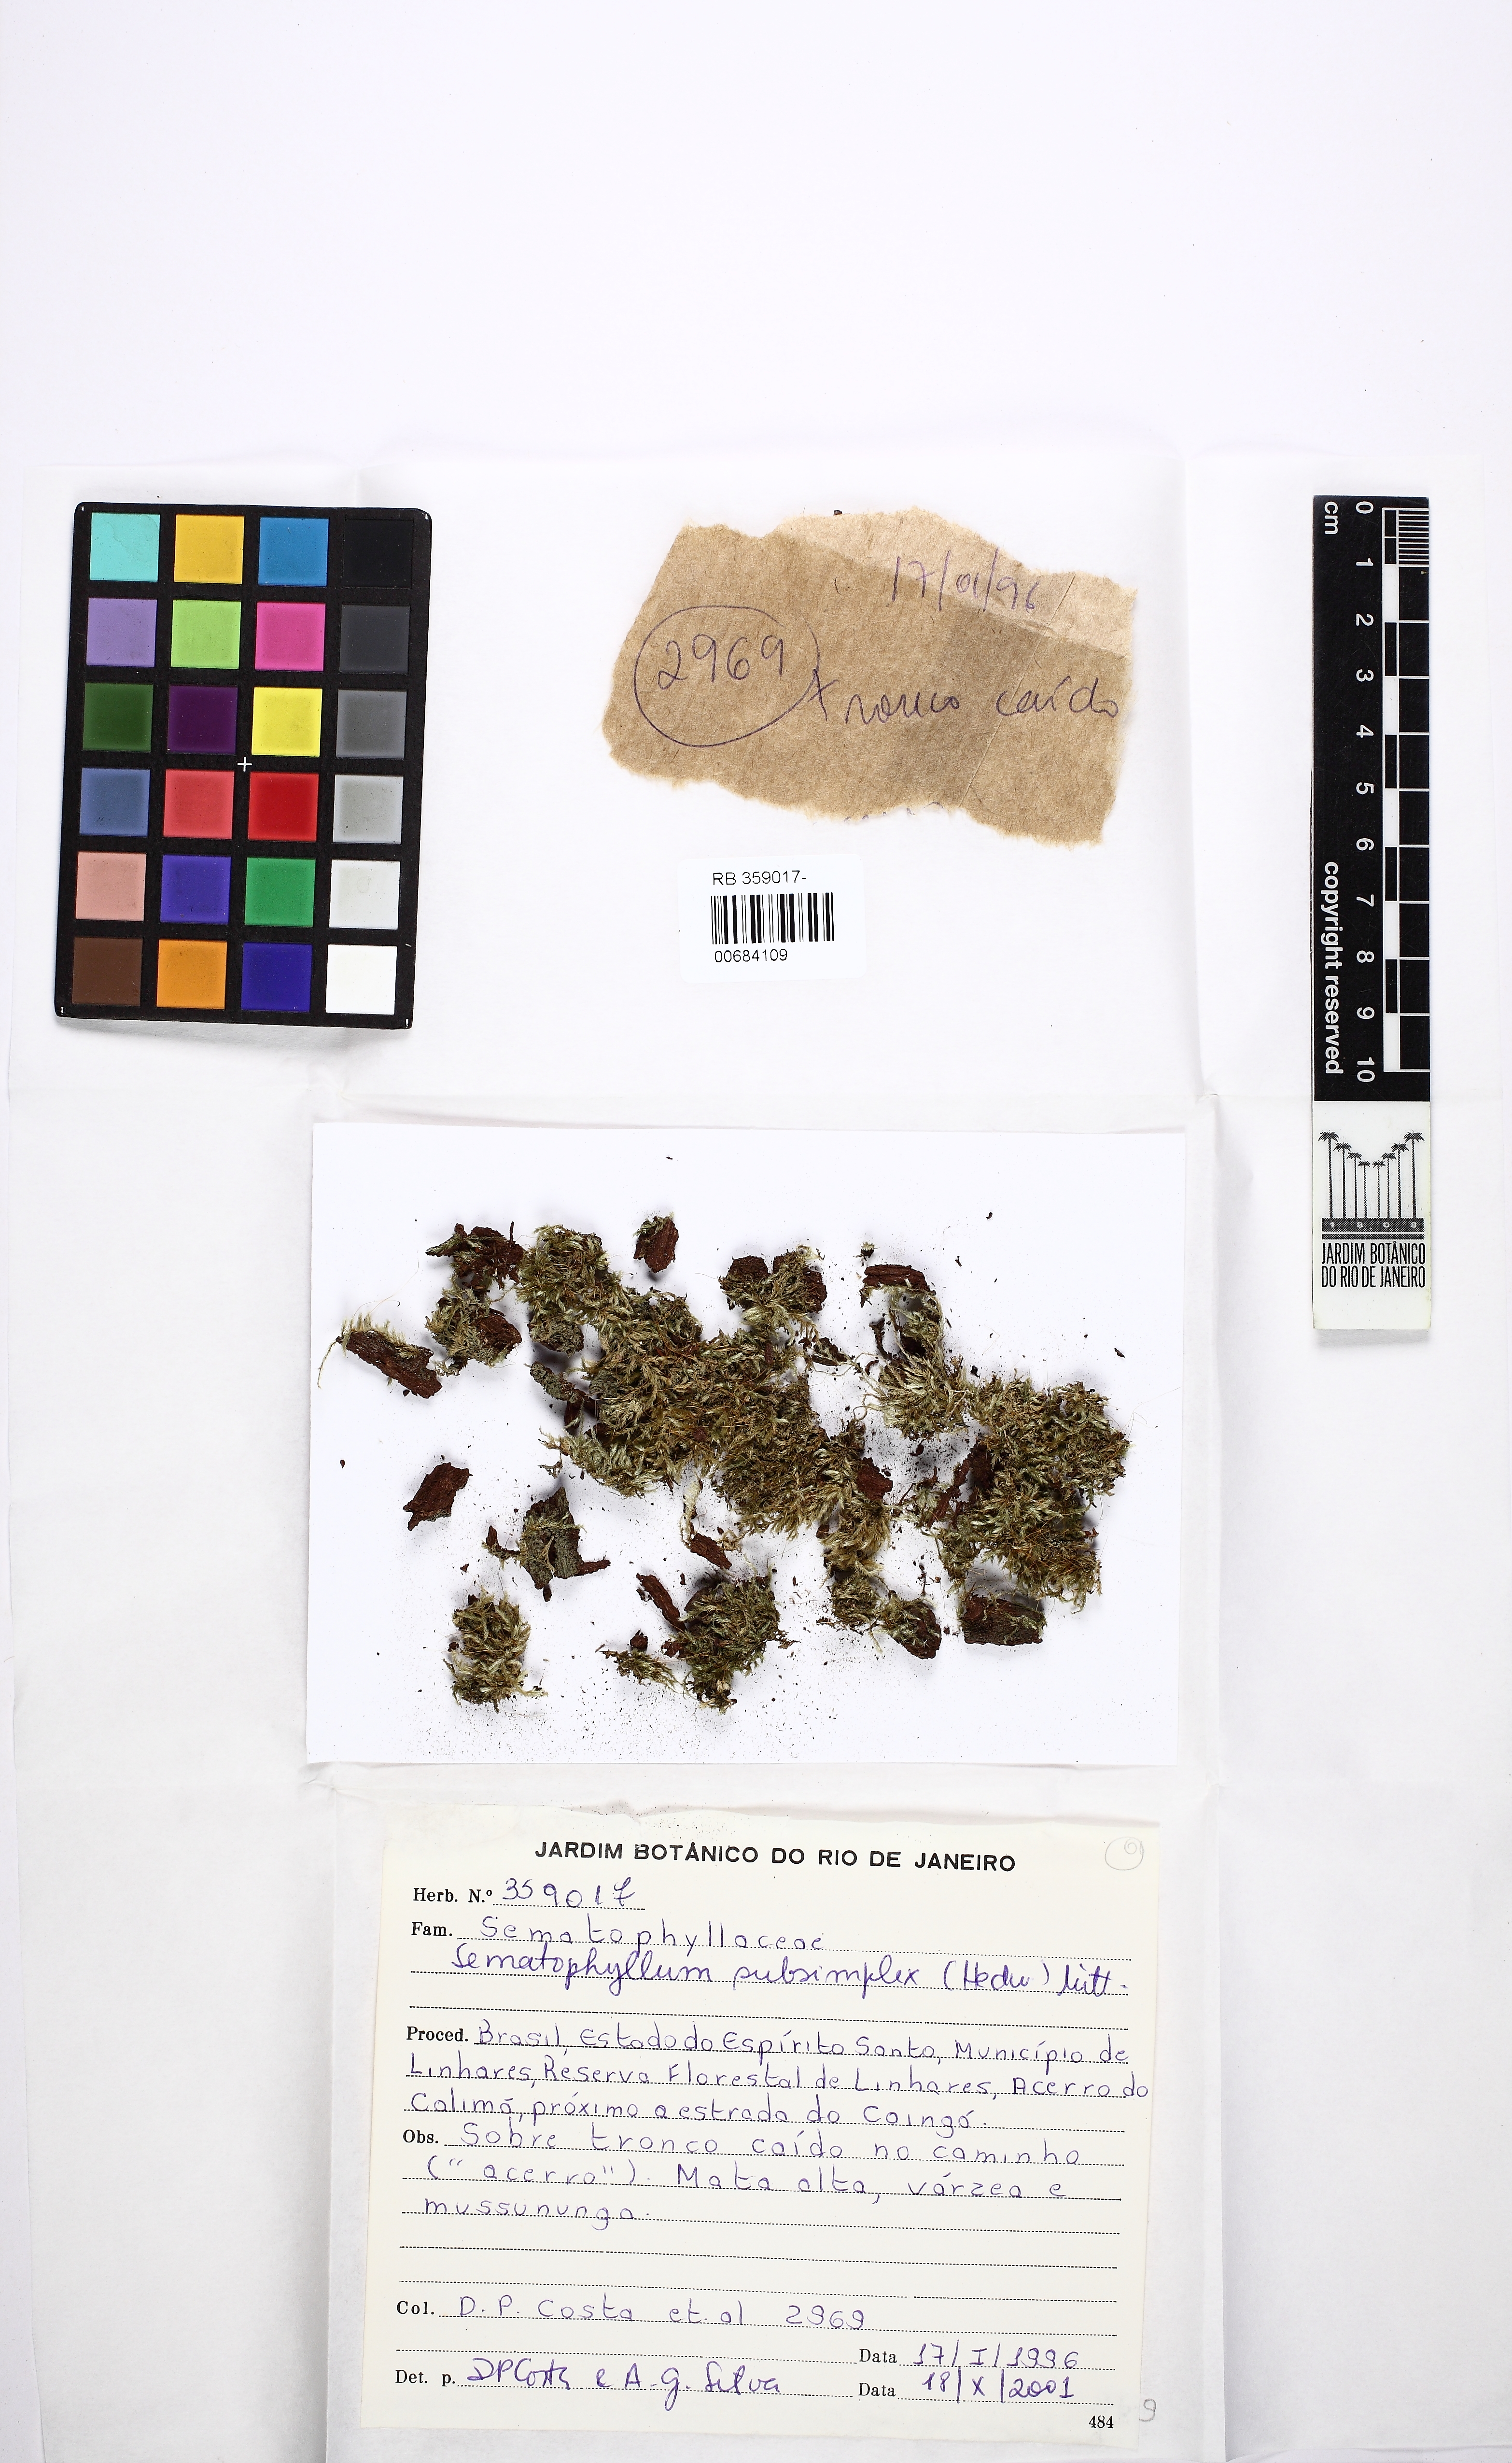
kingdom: Plantae
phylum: Bryophyta
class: Bryopsida
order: Hypnales
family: Sematophyllaceae
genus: Microcalpe
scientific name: Microcalpe subsimplex
